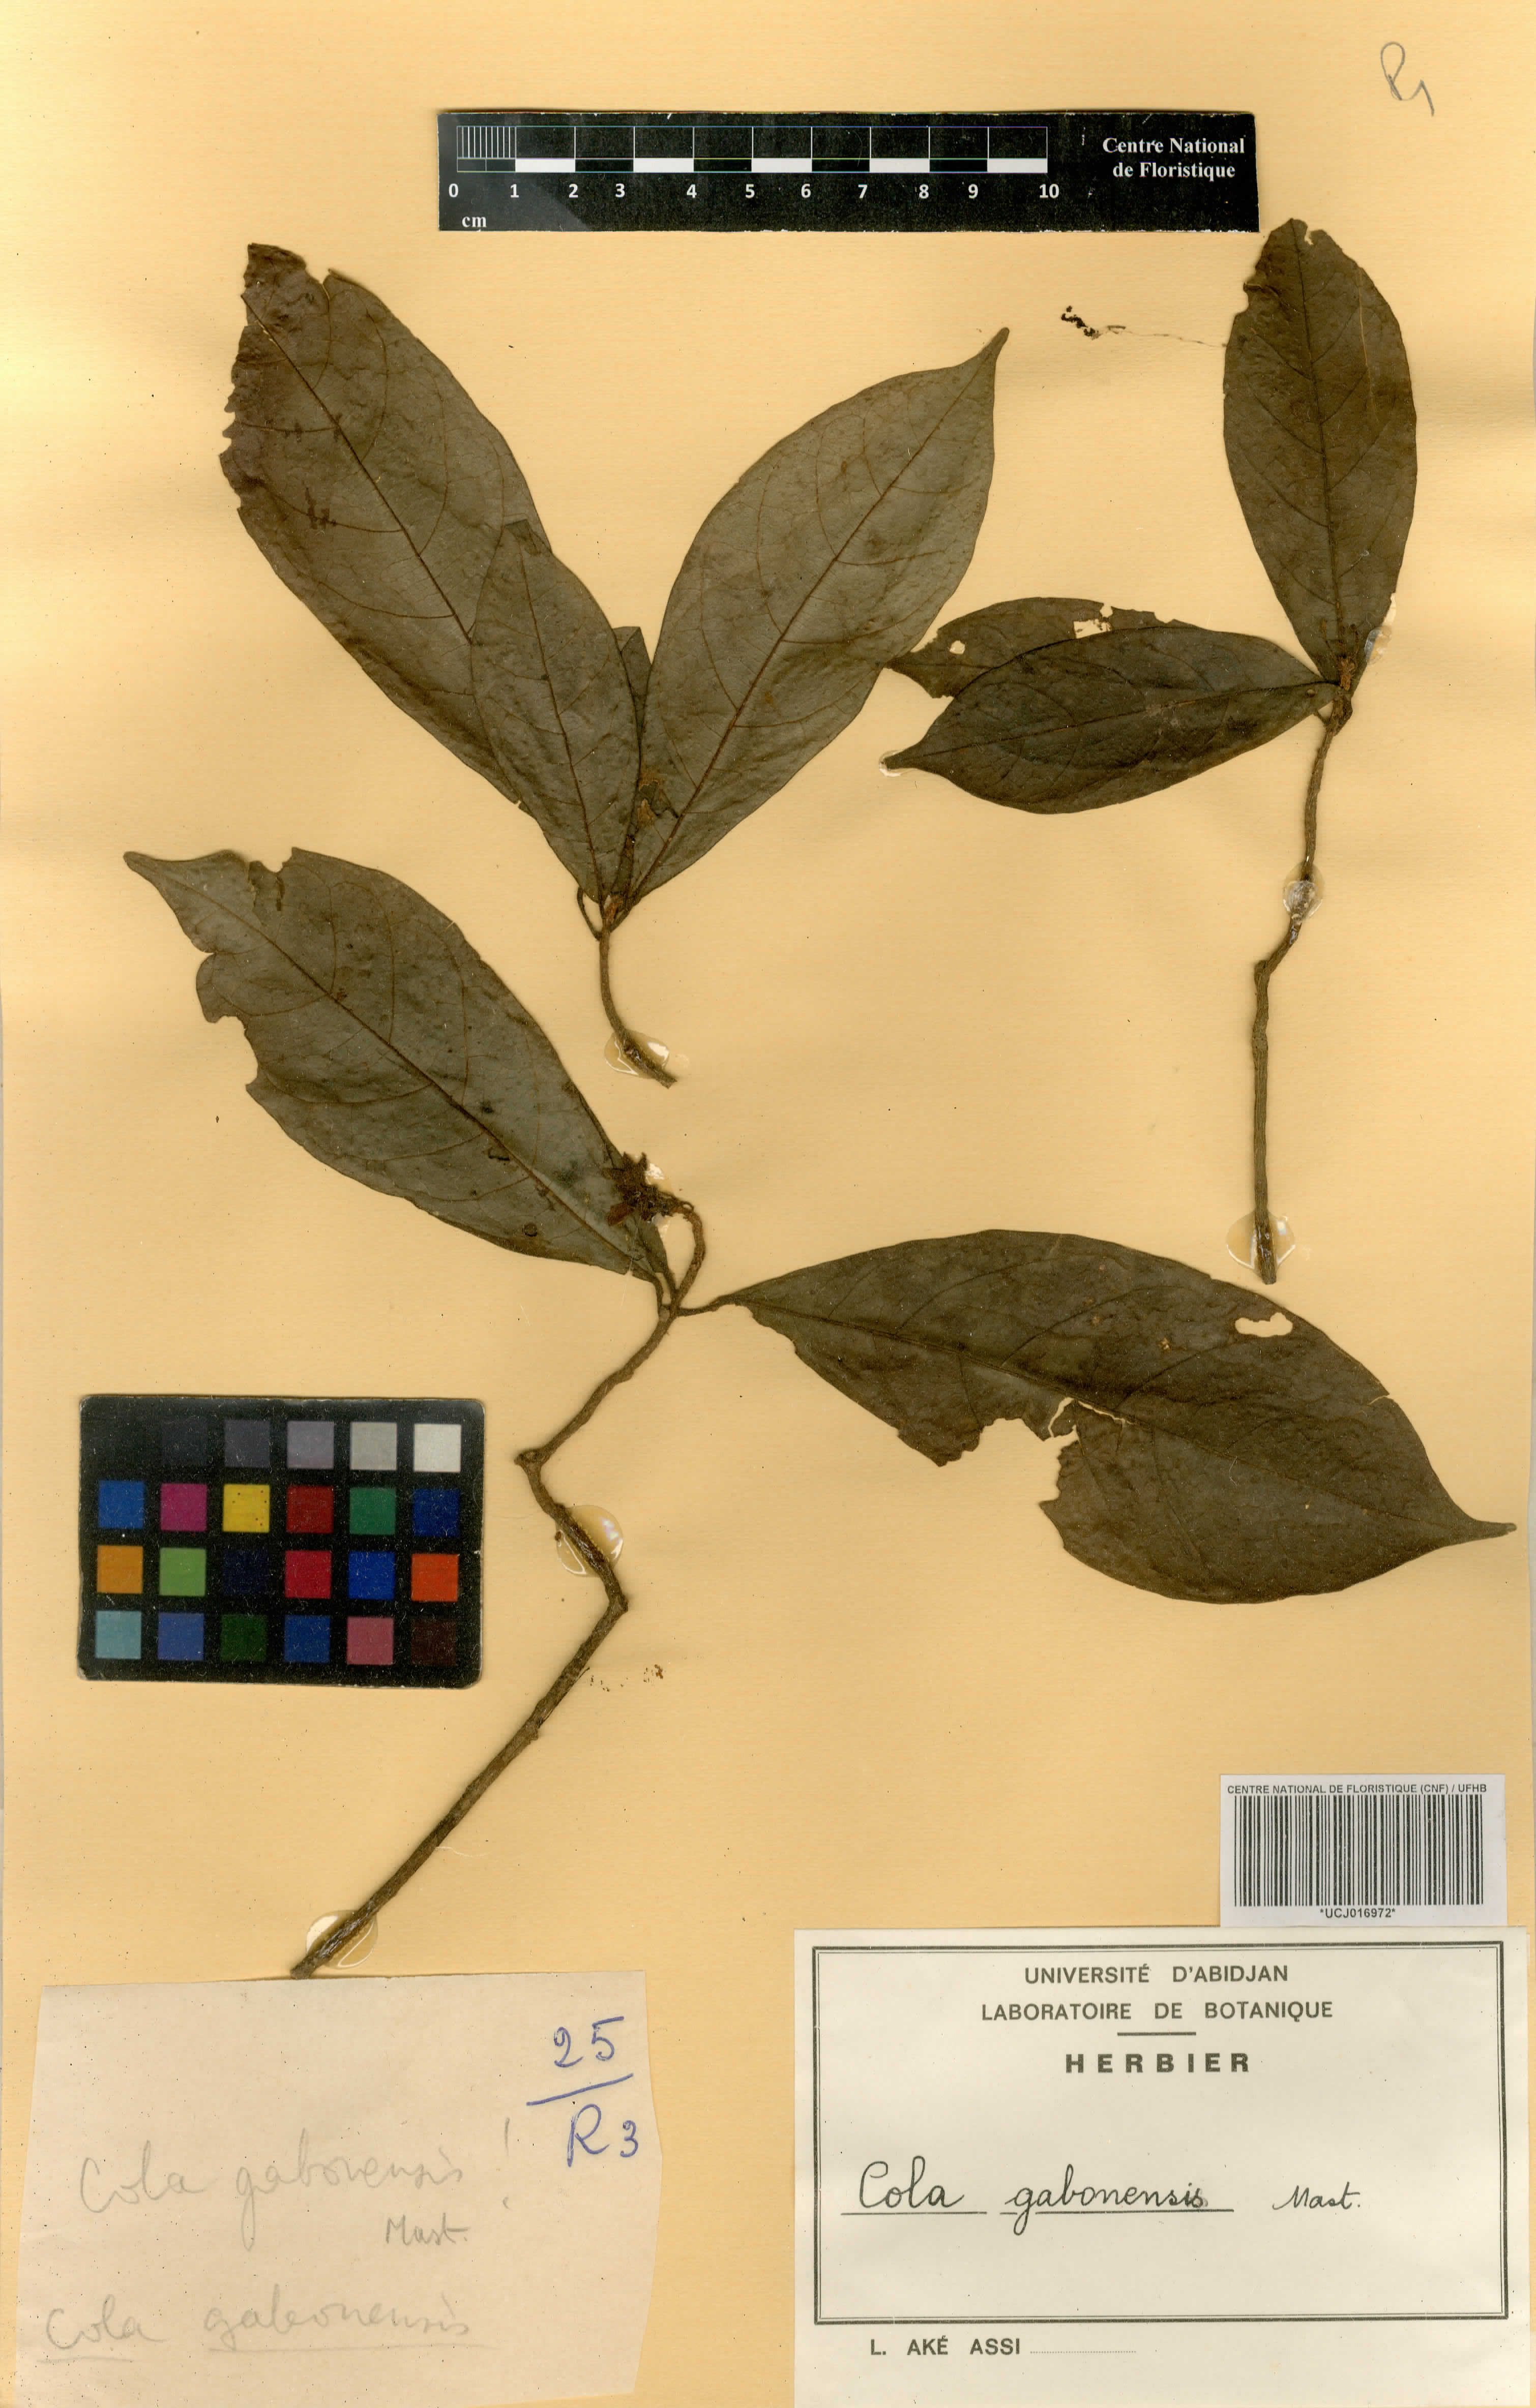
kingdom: Plantae
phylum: Tracheophyta
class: Magnoliopsida
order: Malvales
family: Malvaceae
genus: Cola
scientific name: Cola gabonensis
